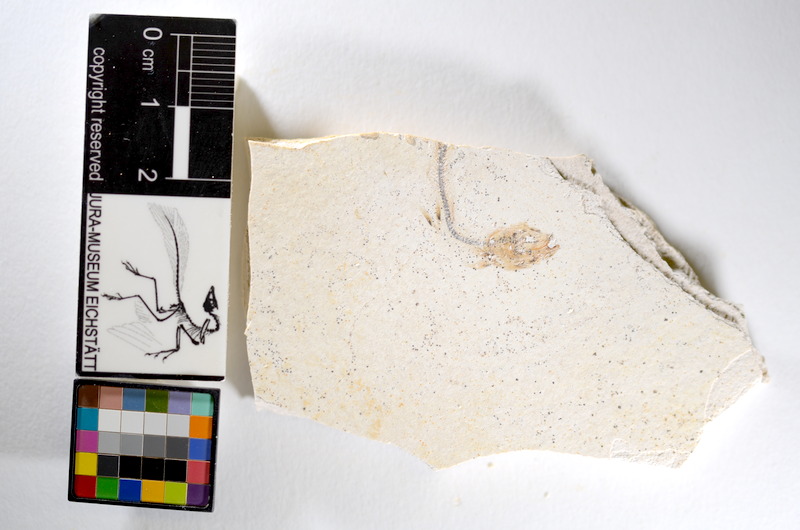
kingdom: Animalia
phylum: Chordata
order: Salmoniformes
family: Orthogonikleithridae
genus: Orthogonikleithrus
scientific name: Orthogonikleithrus hoelli
